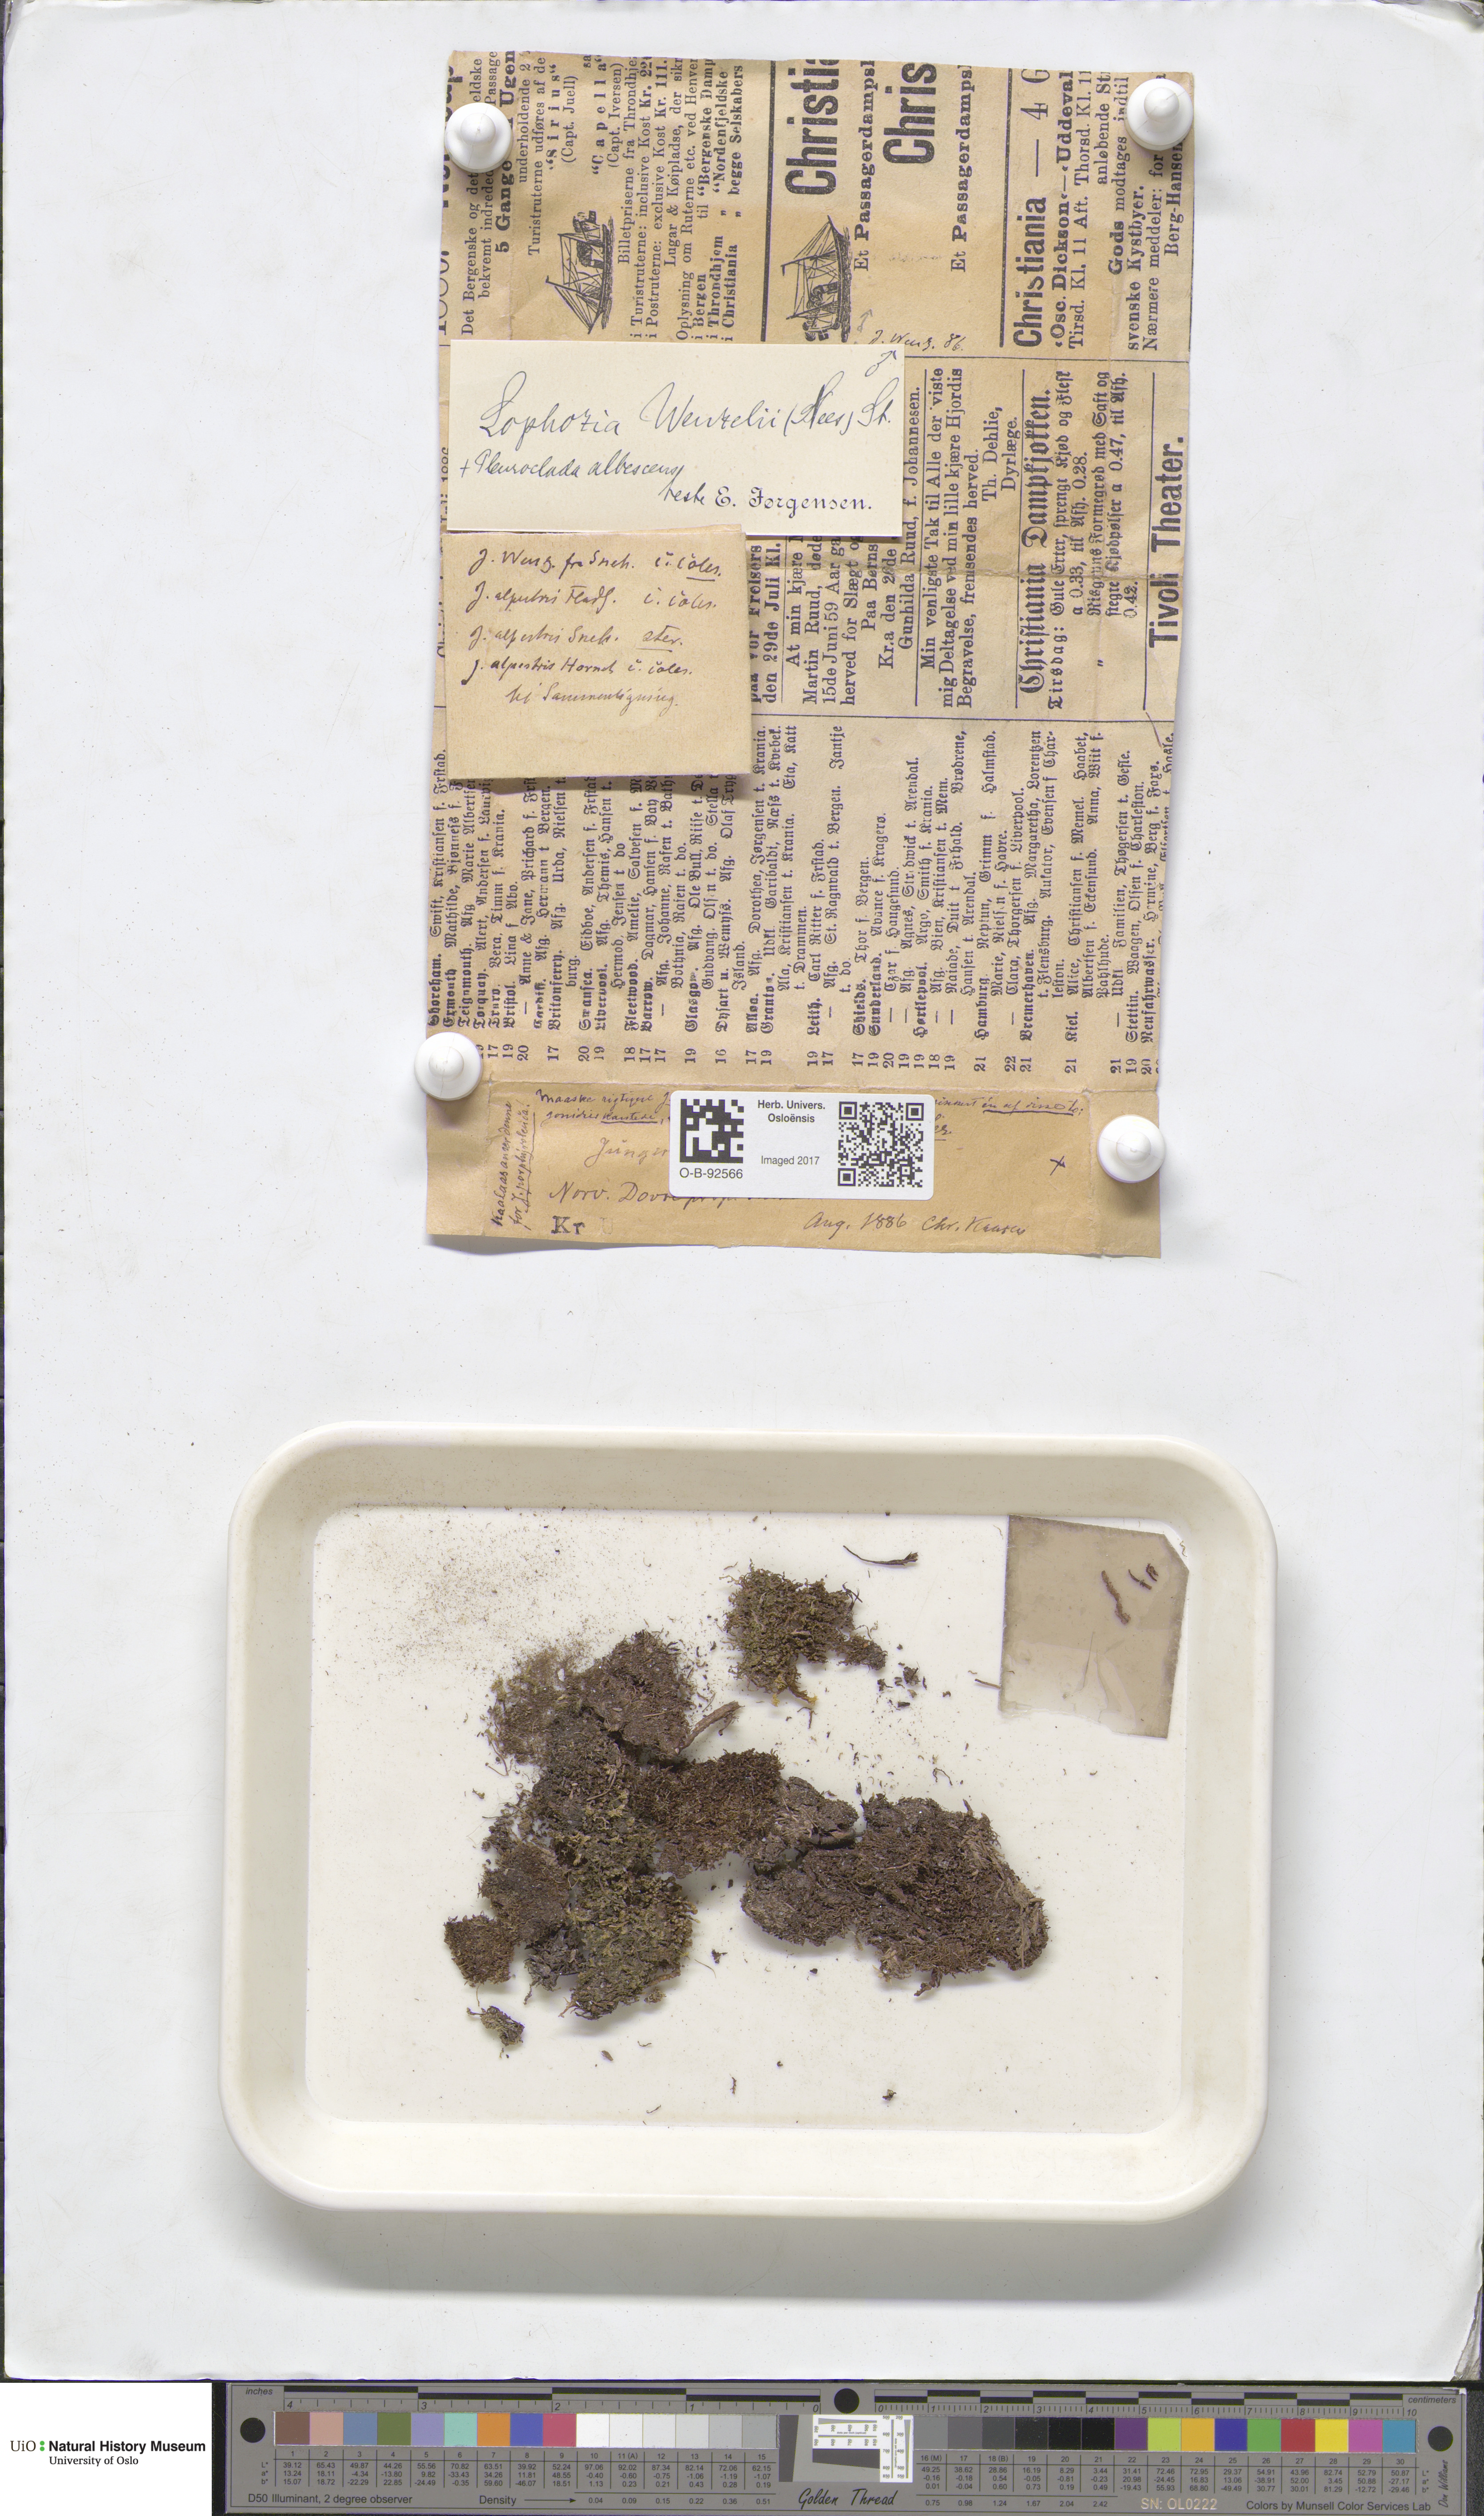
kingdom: Plantae
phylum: Marchantiophyta
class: Jungermanniopsida
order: Jungermanniales
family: Lophoziaceae
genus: Lophozia
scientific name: Lophozia
